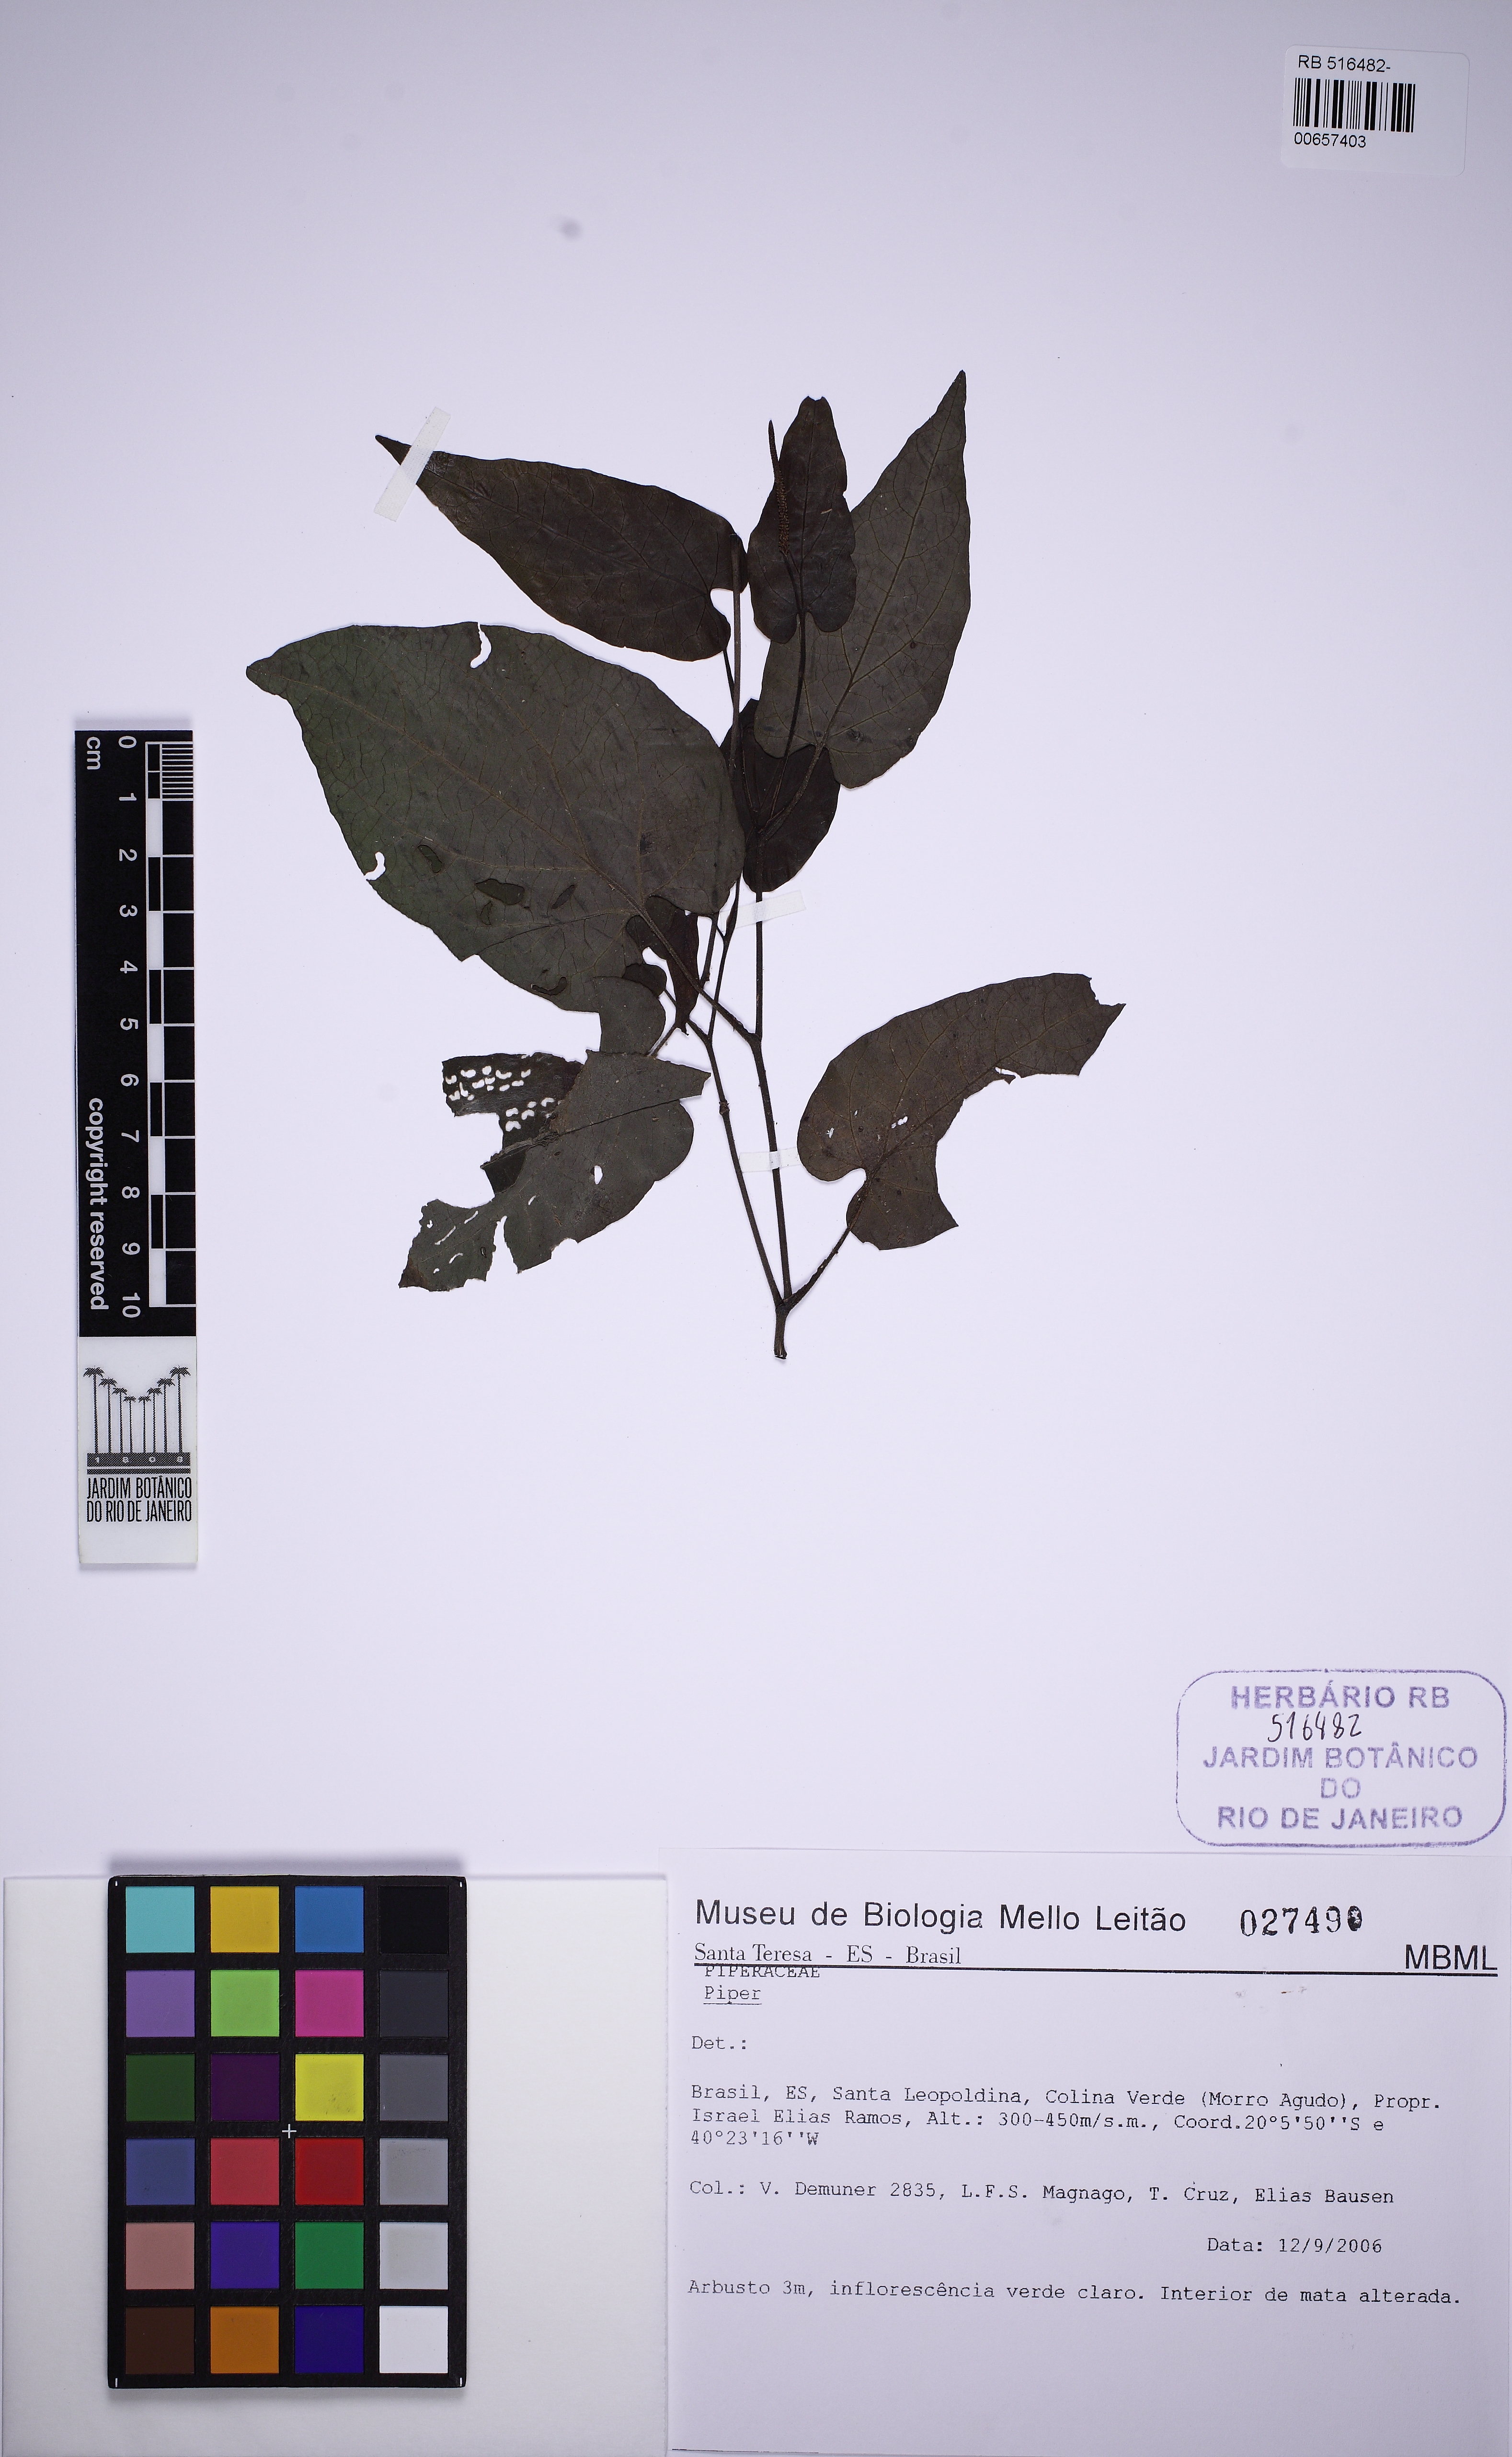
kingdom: Plantae
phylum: Tracheophyta
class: Magnoliopsida
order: Piperales
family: Piperaceae
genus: Piper
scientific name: Piper
